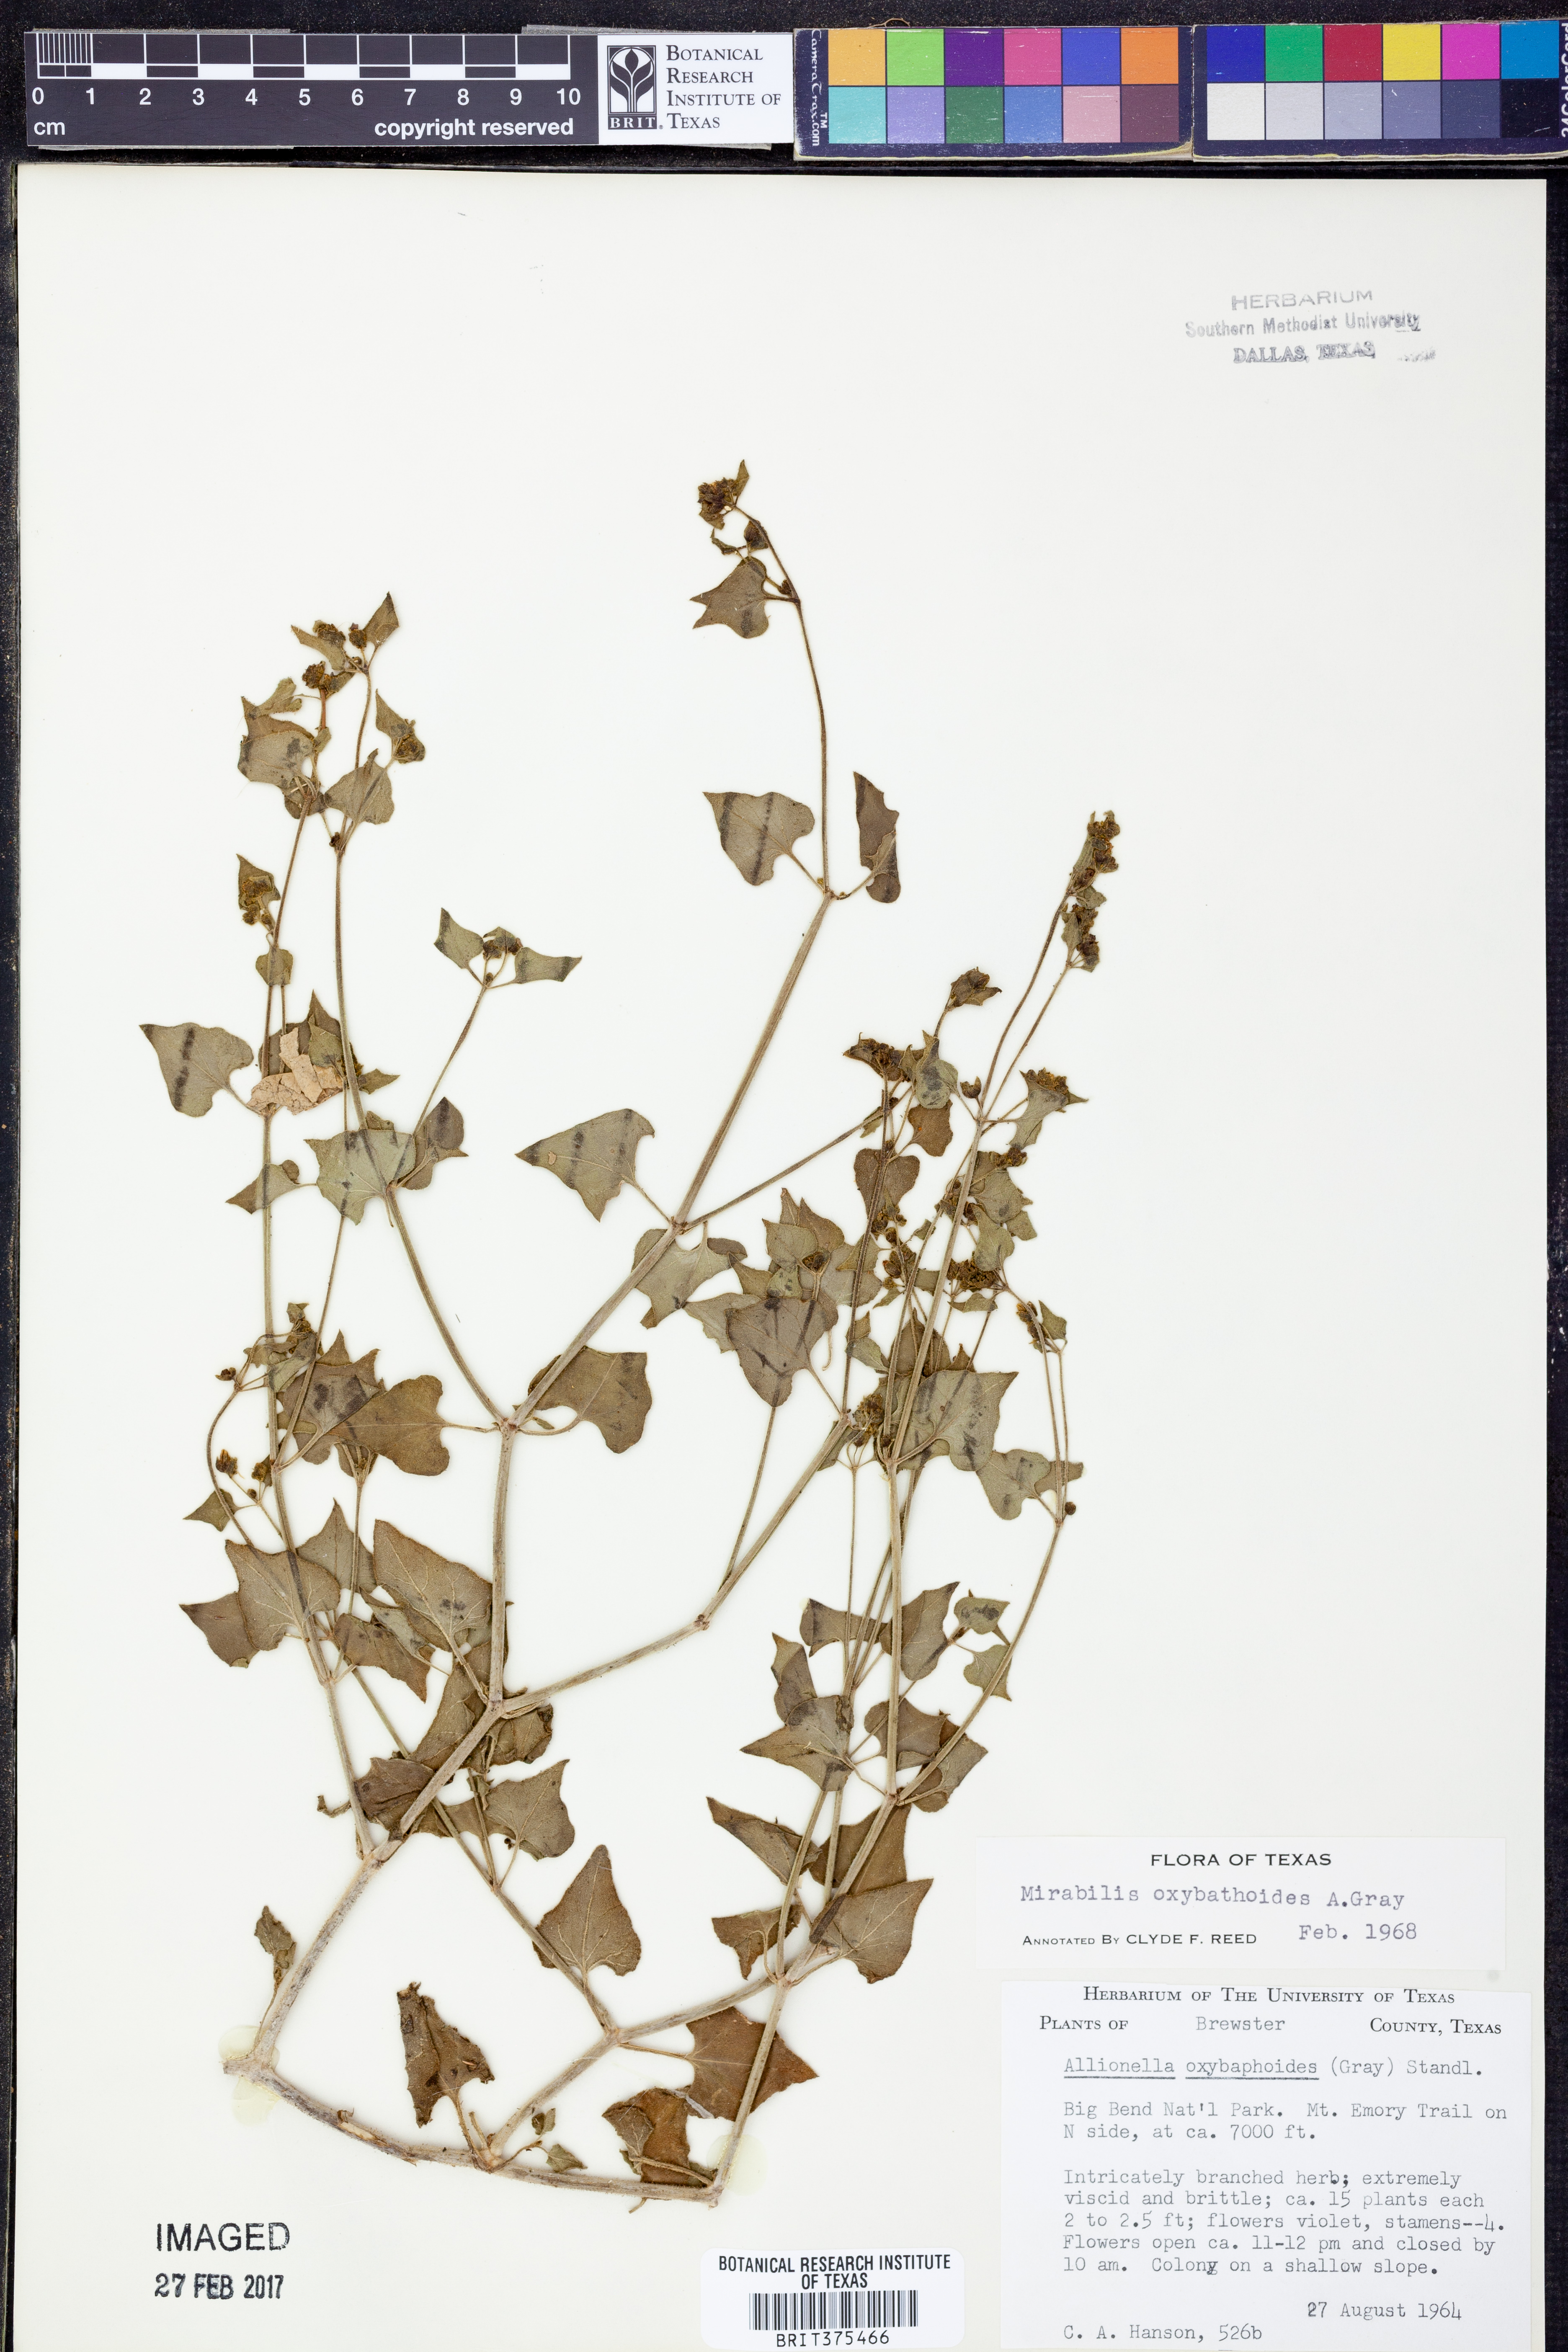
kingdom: Plantae
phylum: Tracheophyta
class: Magnoliopsida
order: Caryophyllales
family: Nyctaginaceae
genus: Mirabilis
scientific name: Mirabilis oxybaphoides
